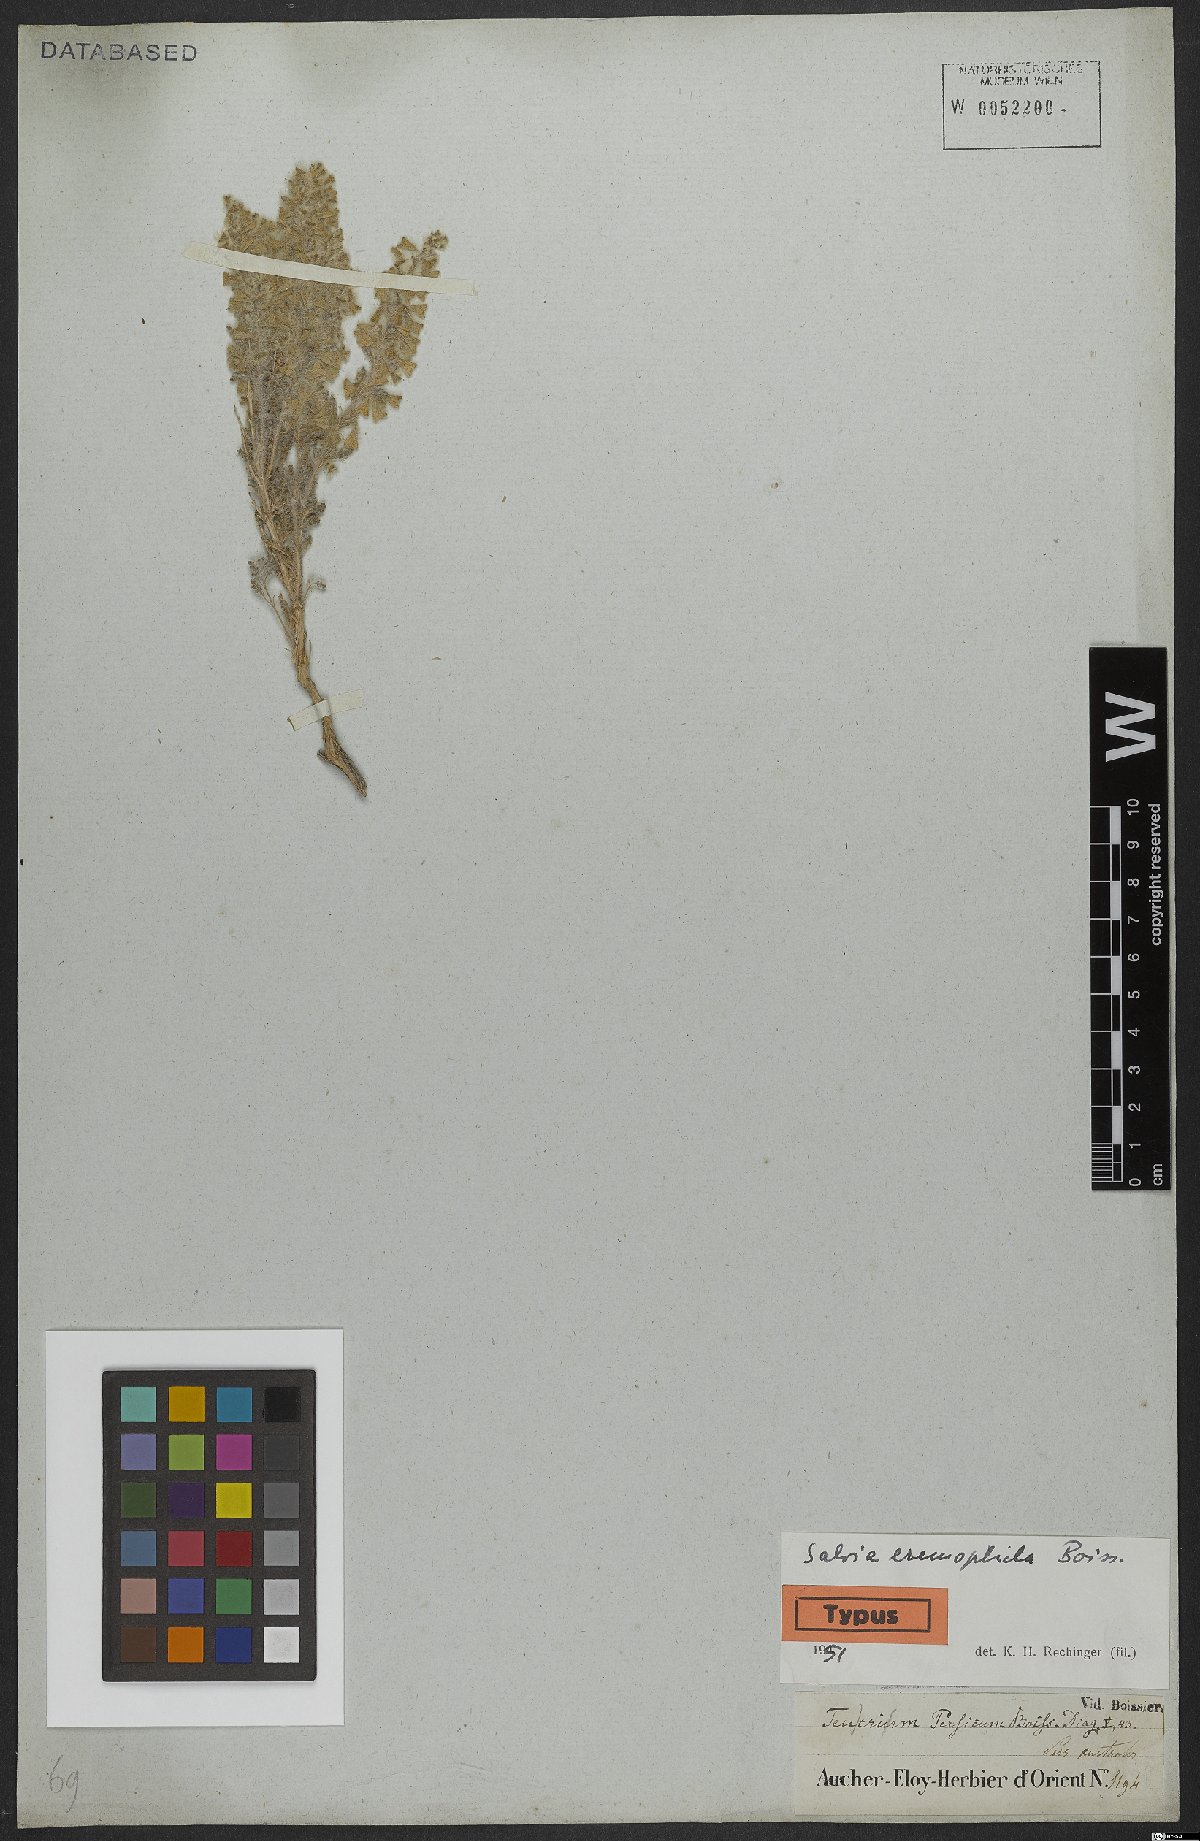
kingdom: Plantae
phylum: Tracheophyta
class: Magnoliopsida
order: Lamiales
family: Lamiaceae
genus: Salvia
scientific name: Salvia eremophila
